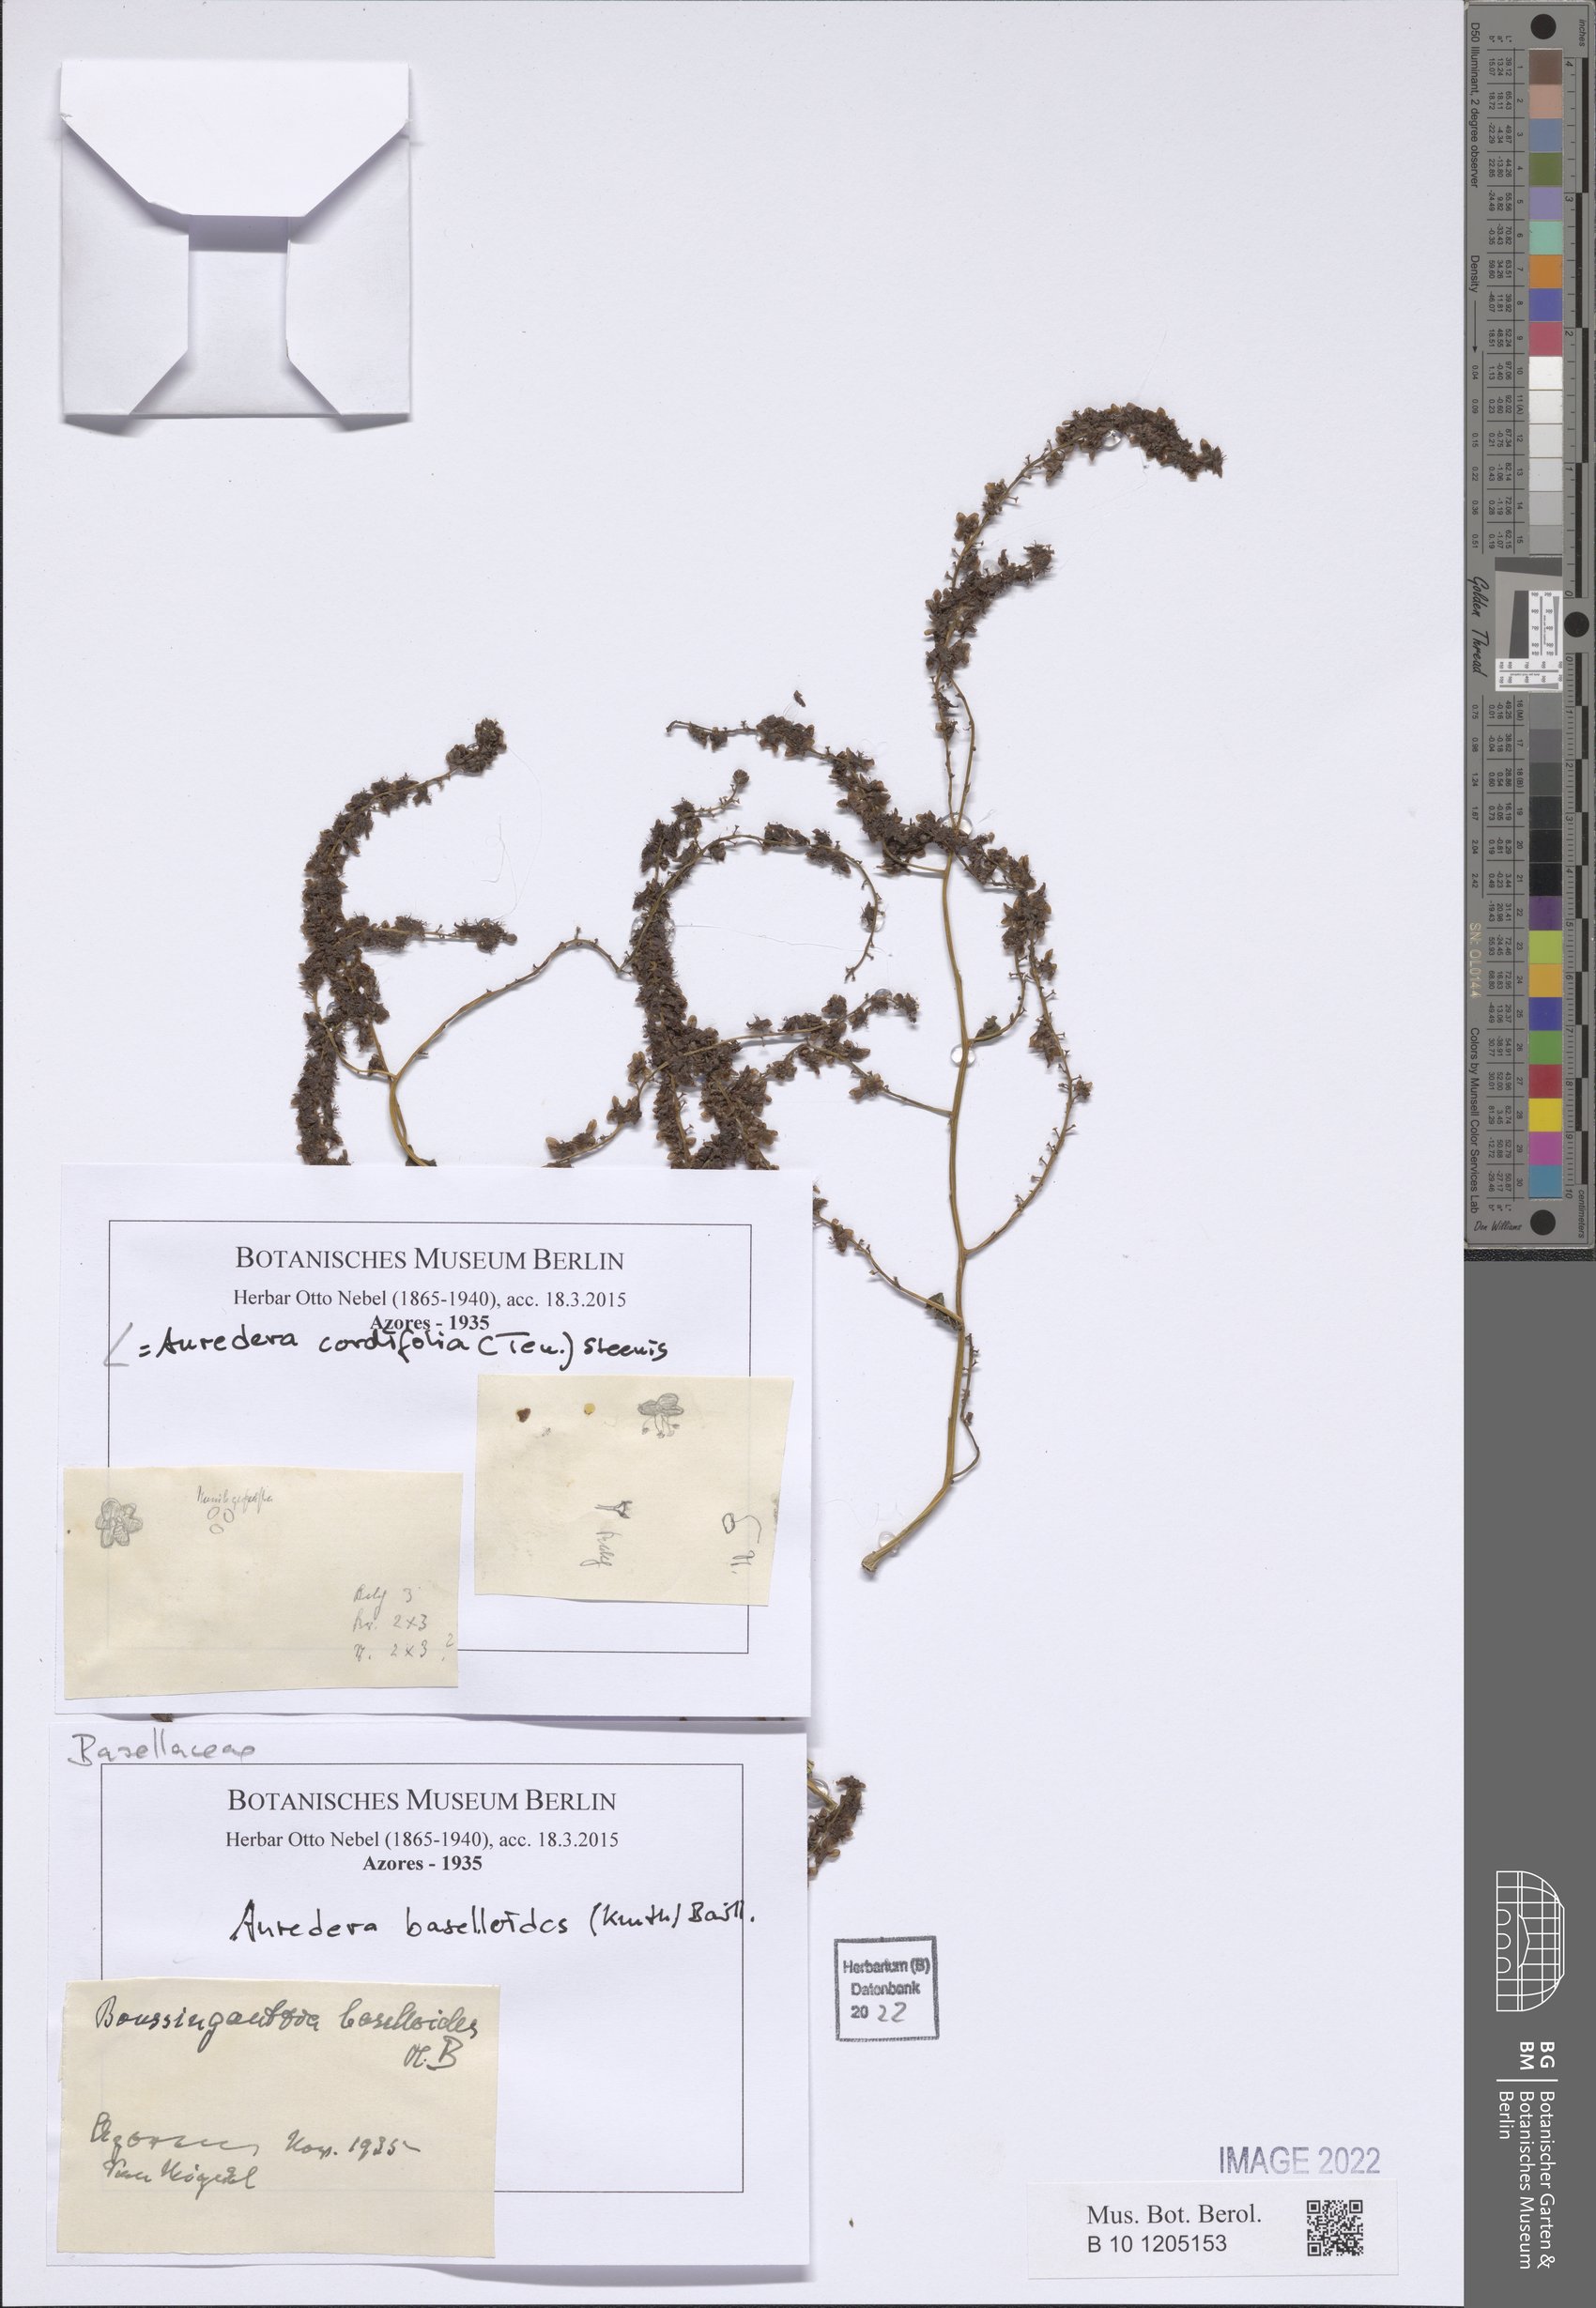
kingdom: Plantae
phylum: Tracheophyta
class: Magnoliopsida
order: Caryophyllales
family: Basellaceae
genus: Anredera
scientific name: Anredera cordifolia
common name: Heartleaf madeiravine
